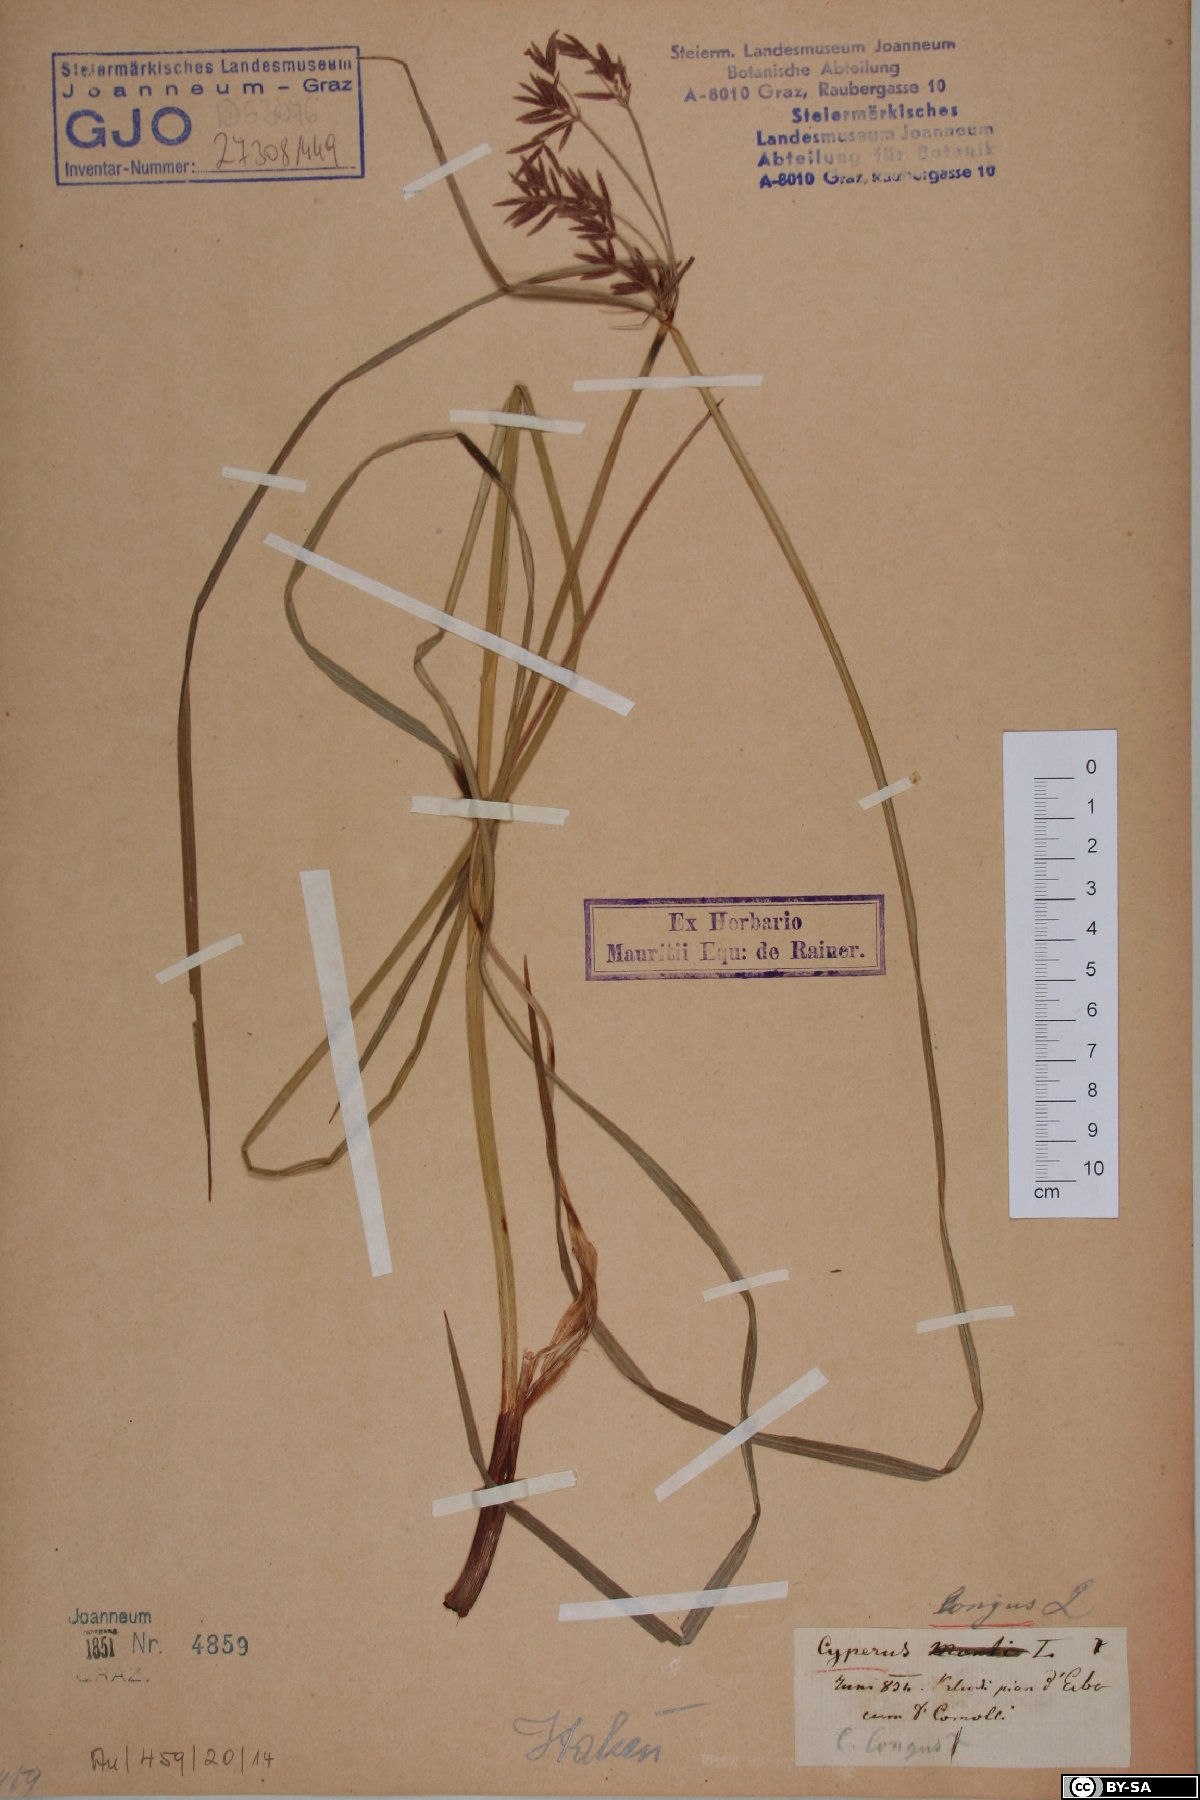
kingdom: Plantae
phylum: Tracheophyta
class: Liliopsida
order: Poales
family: Cyperaceae
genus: Cyperus
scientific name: Cyperus longus
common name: Galingale
